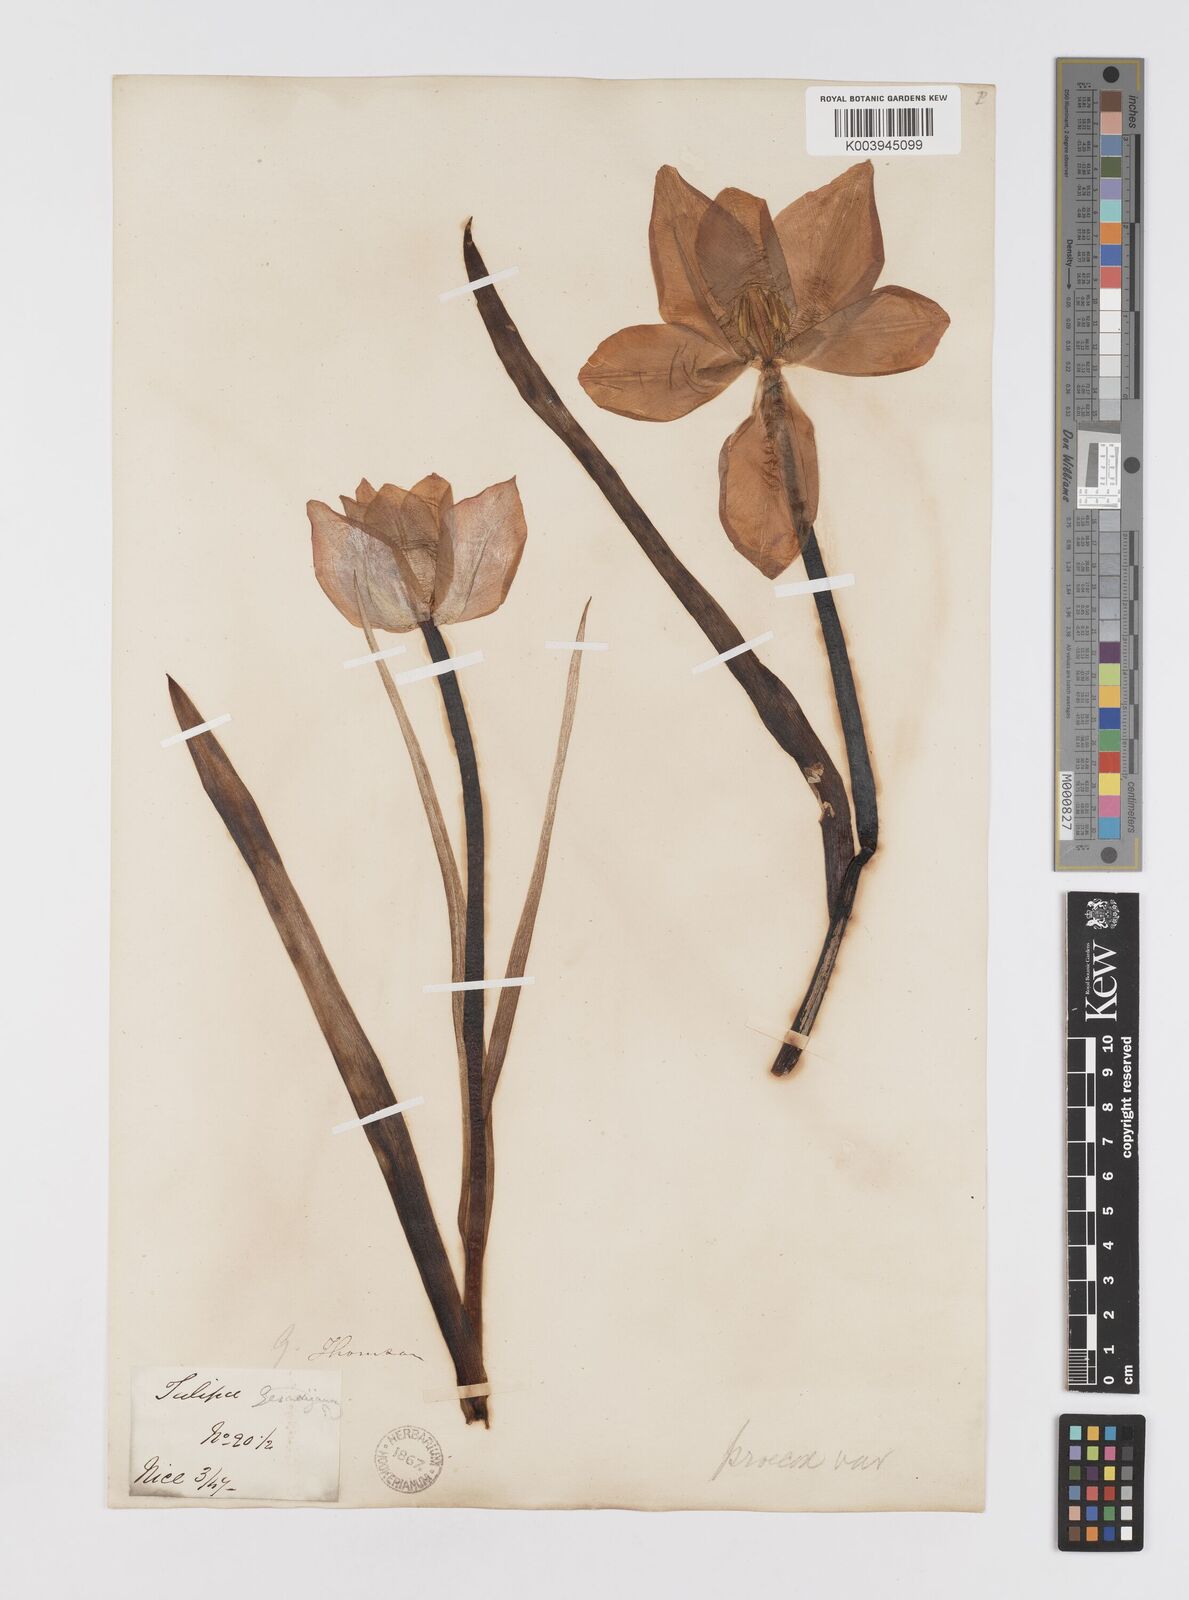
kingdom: Plantae
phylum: Tracheophyta
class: Liliopsida
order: Liliales
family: Liliaceae
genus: Tulipa
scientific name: Tulipa
